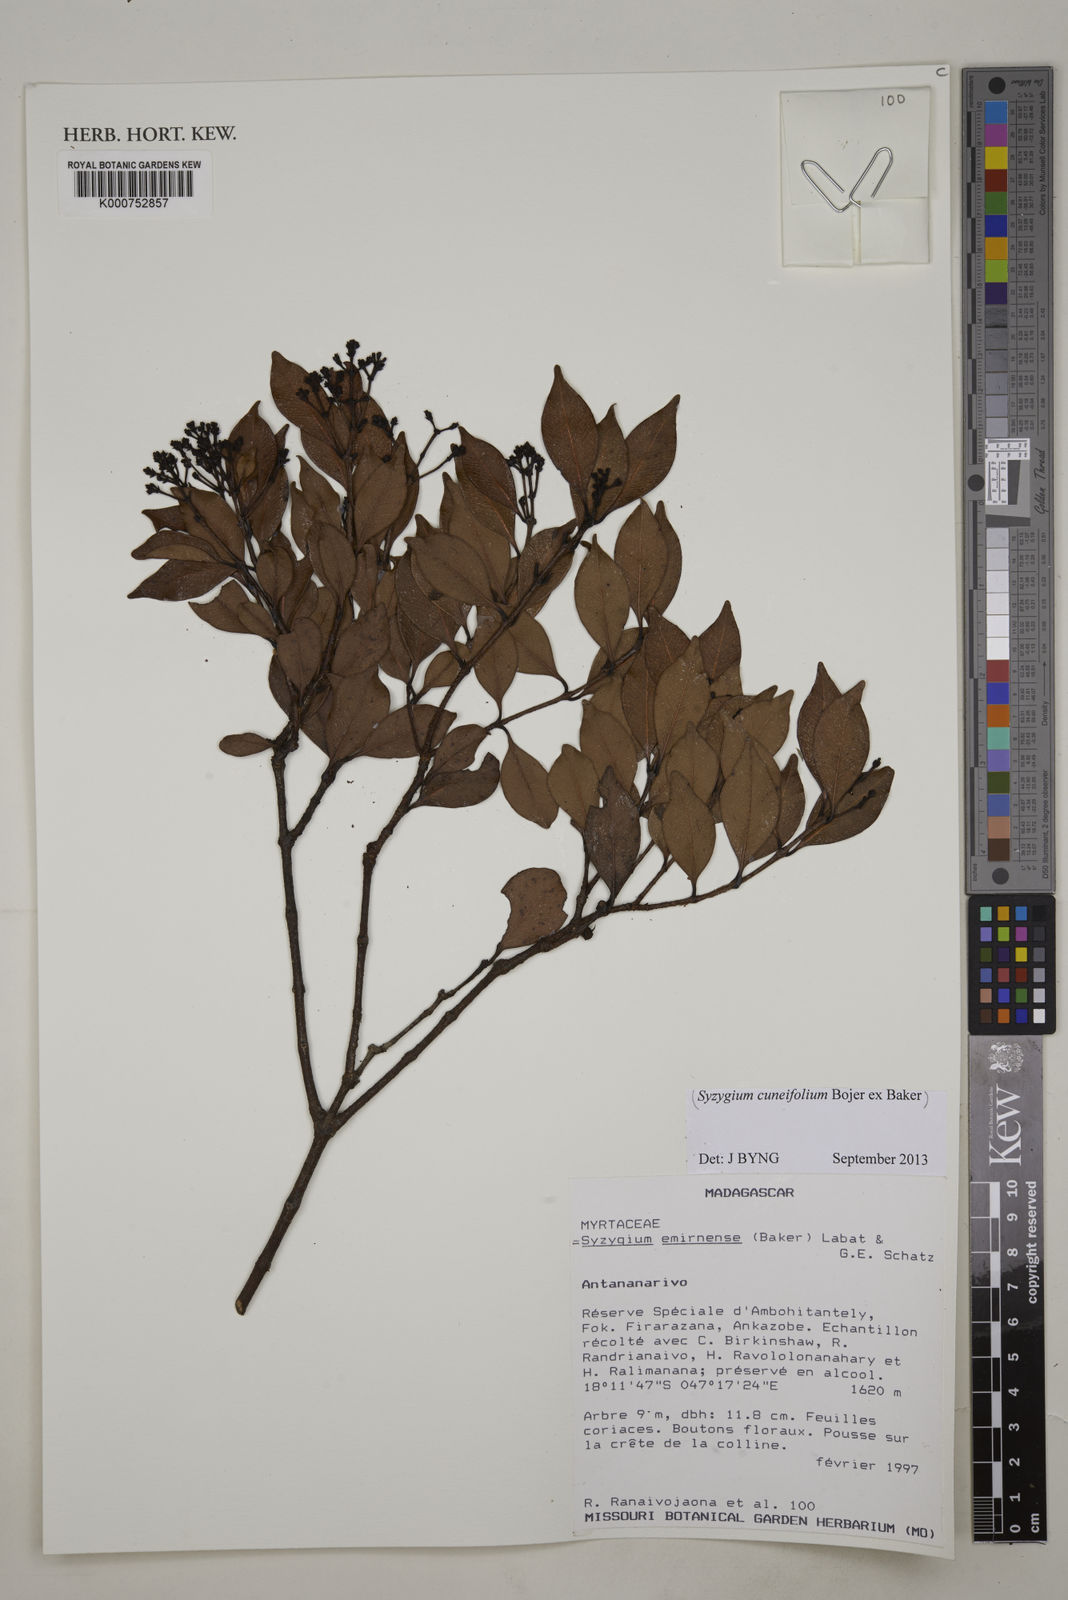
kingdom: Plantae
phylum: Tracheophyta
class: Magnoliopsida
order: Myrtales
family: Myrtaceae
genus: Syzygium
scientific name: Syzygium emirnense
